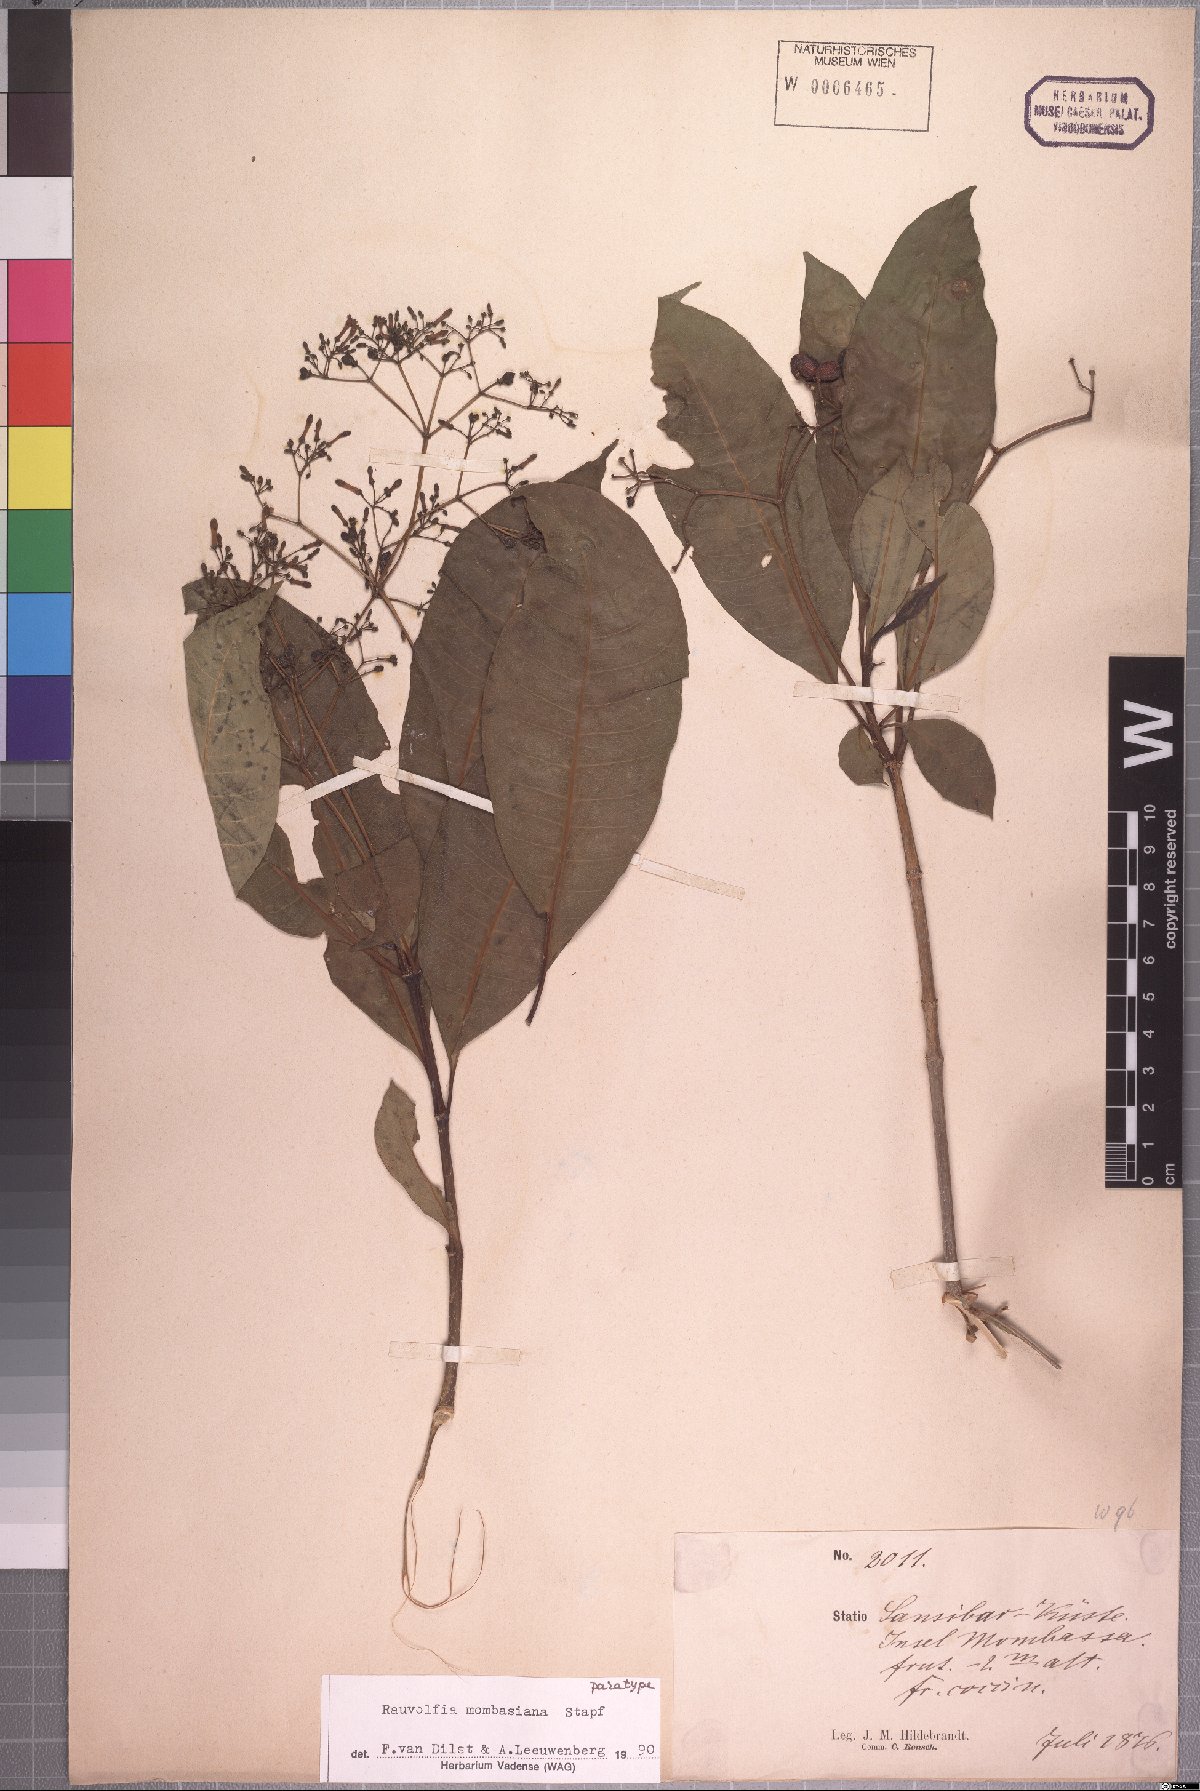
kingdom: Plantae
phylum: Tracheophyta
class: Magnoliopsida
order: Gentianales
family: Apocynaceae
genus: Rauvolfia
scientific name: Rauvolfia mombasiana
